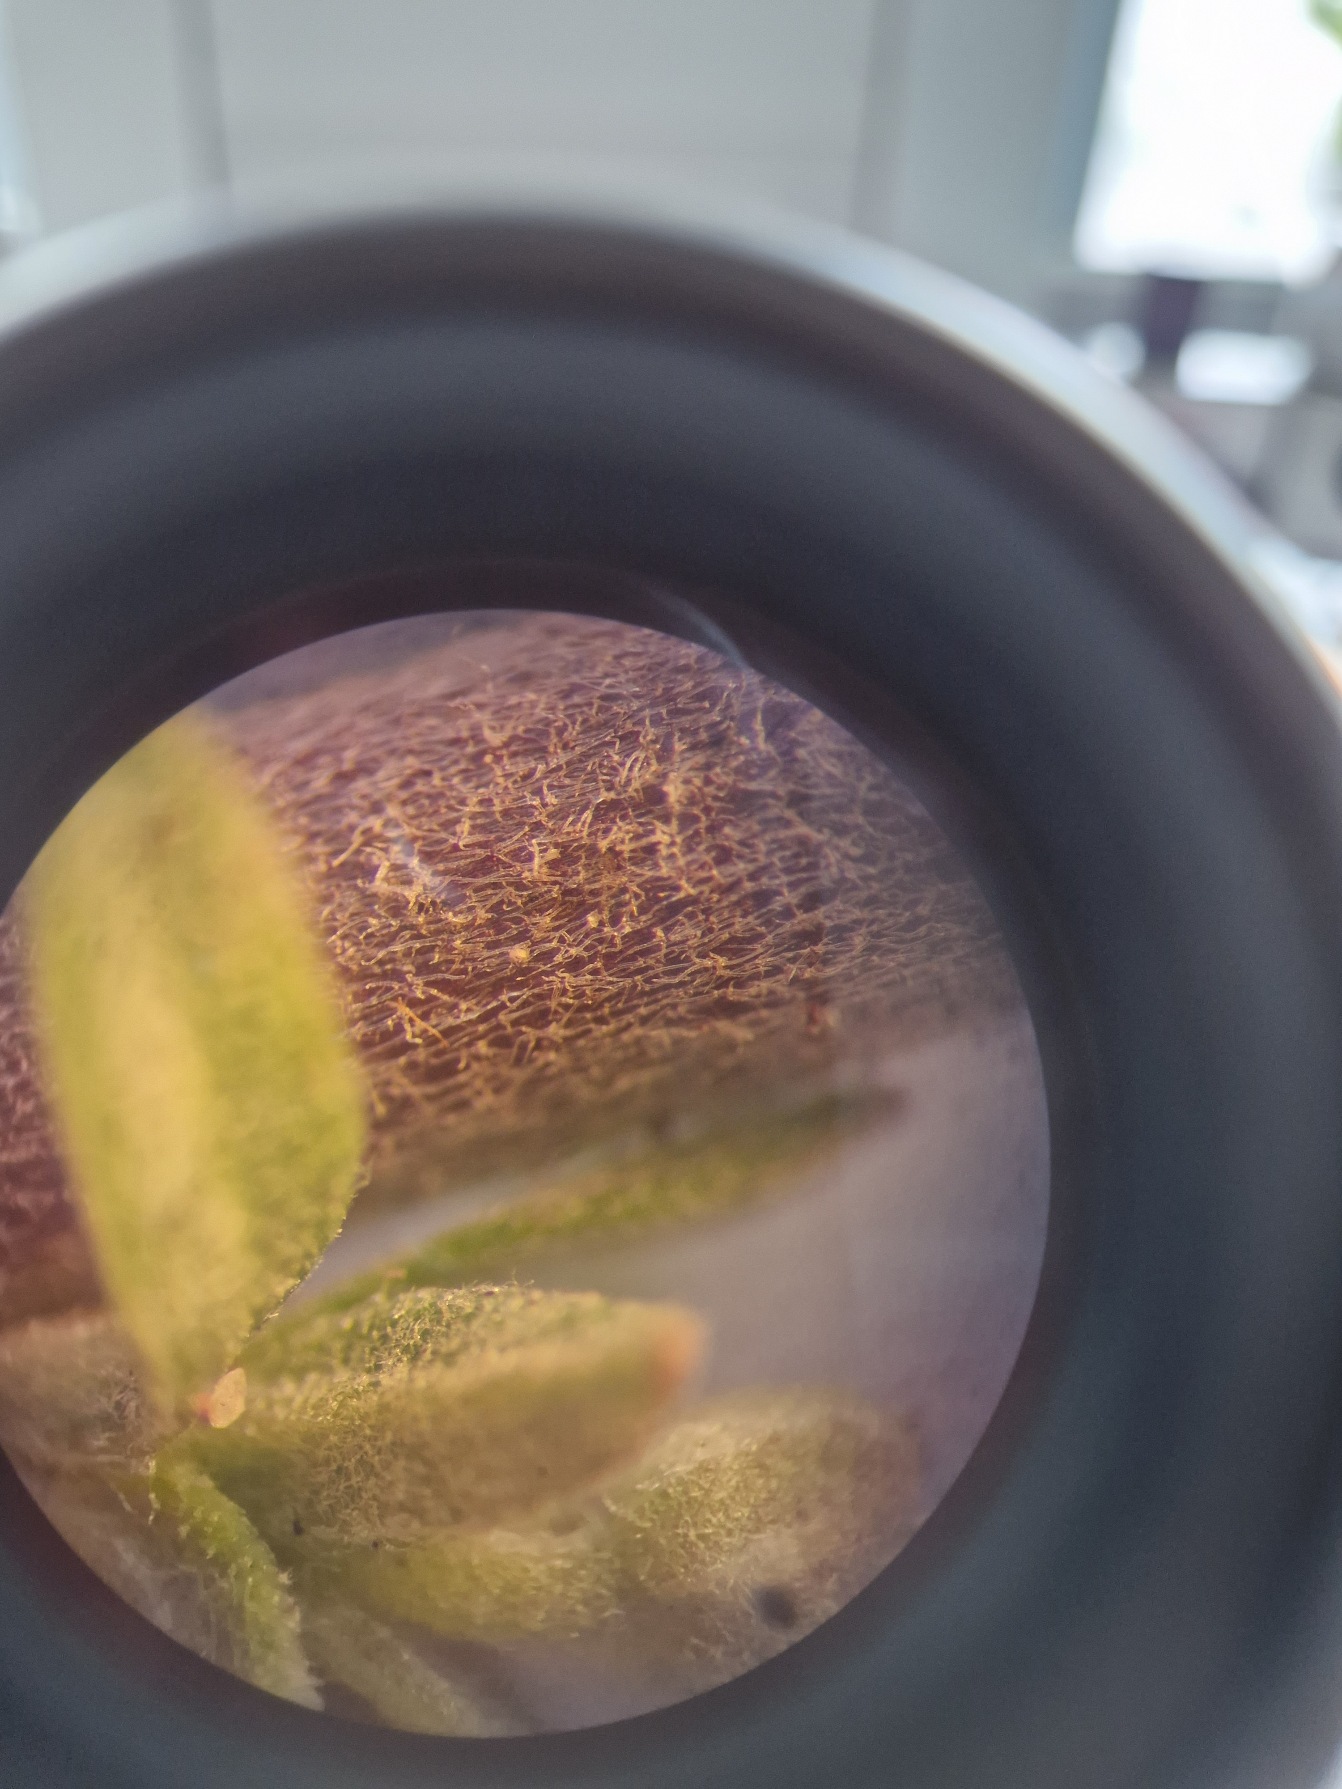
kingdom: Plantae
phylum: Tracheophyta
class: Magnoliopsida
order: Brassicales
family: Brassicaceae
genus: Berteroa
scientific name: Berteroa incana
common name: Kløvplade
